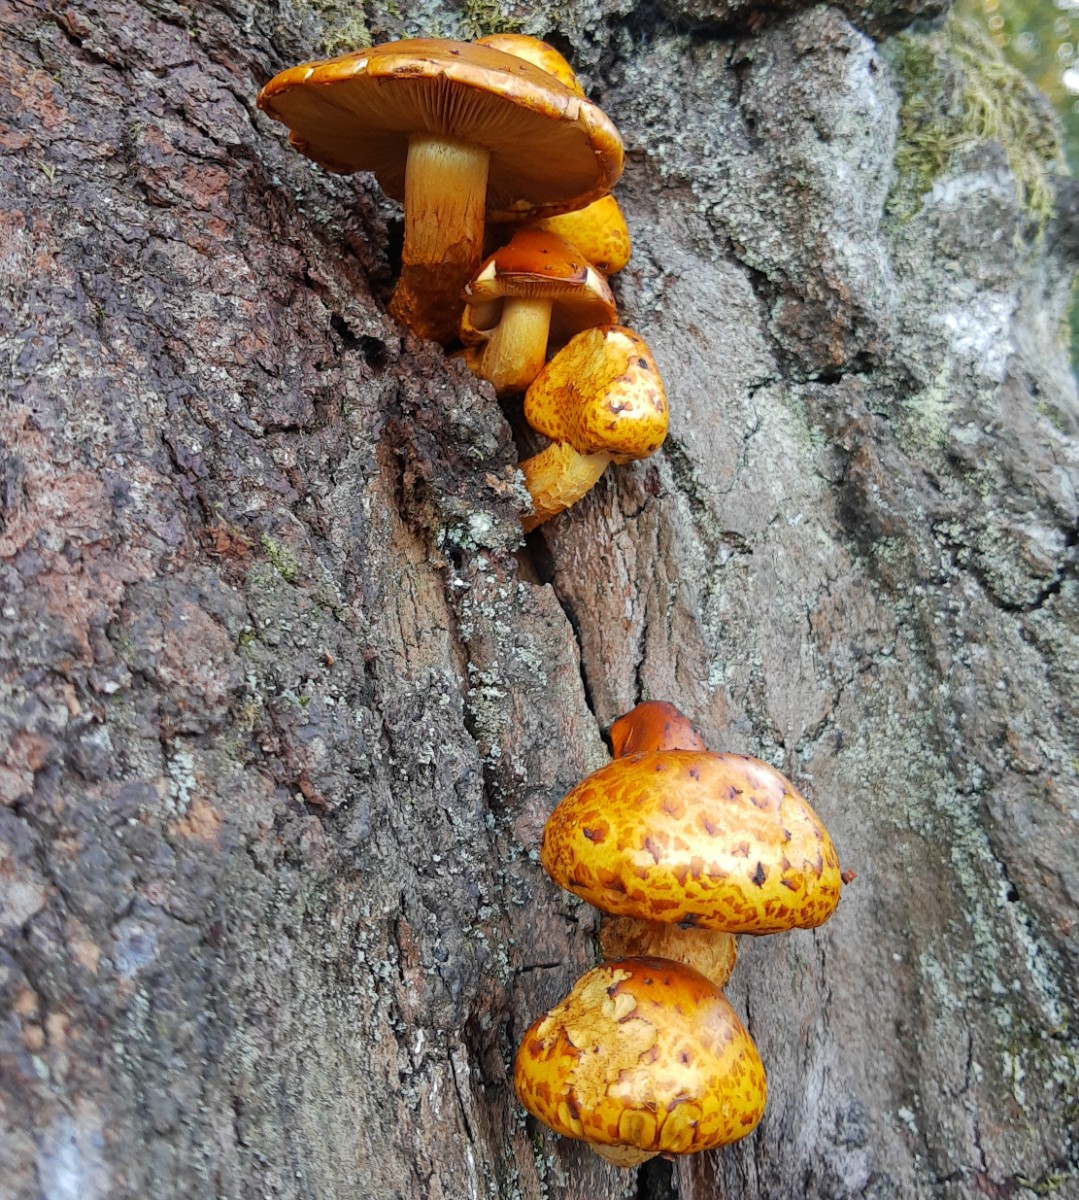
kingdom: Fungi
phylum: Basidiomycota
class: Agaricomycetes
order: Agaricales
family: Strophariaceae
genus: Pholiota
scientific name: Pholiota limonella
